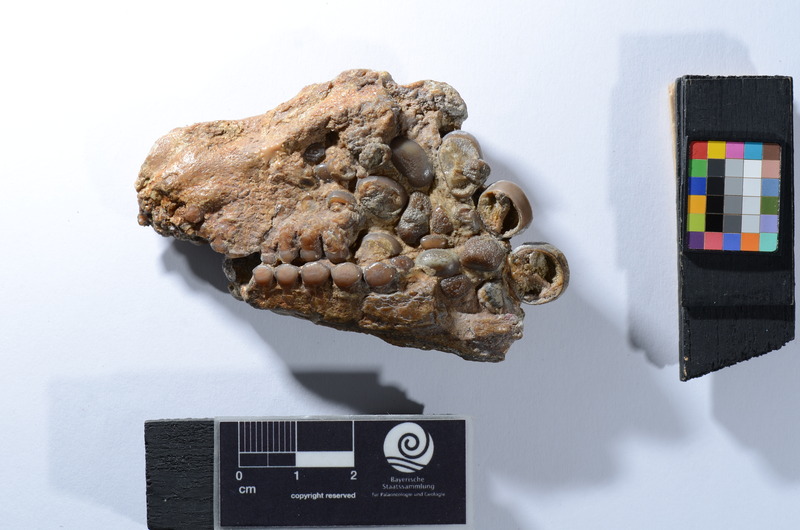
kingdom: Animalia
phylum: Chordata
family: Gyrodontidae
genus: Gyrodus
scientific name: Gyrodus circularis
